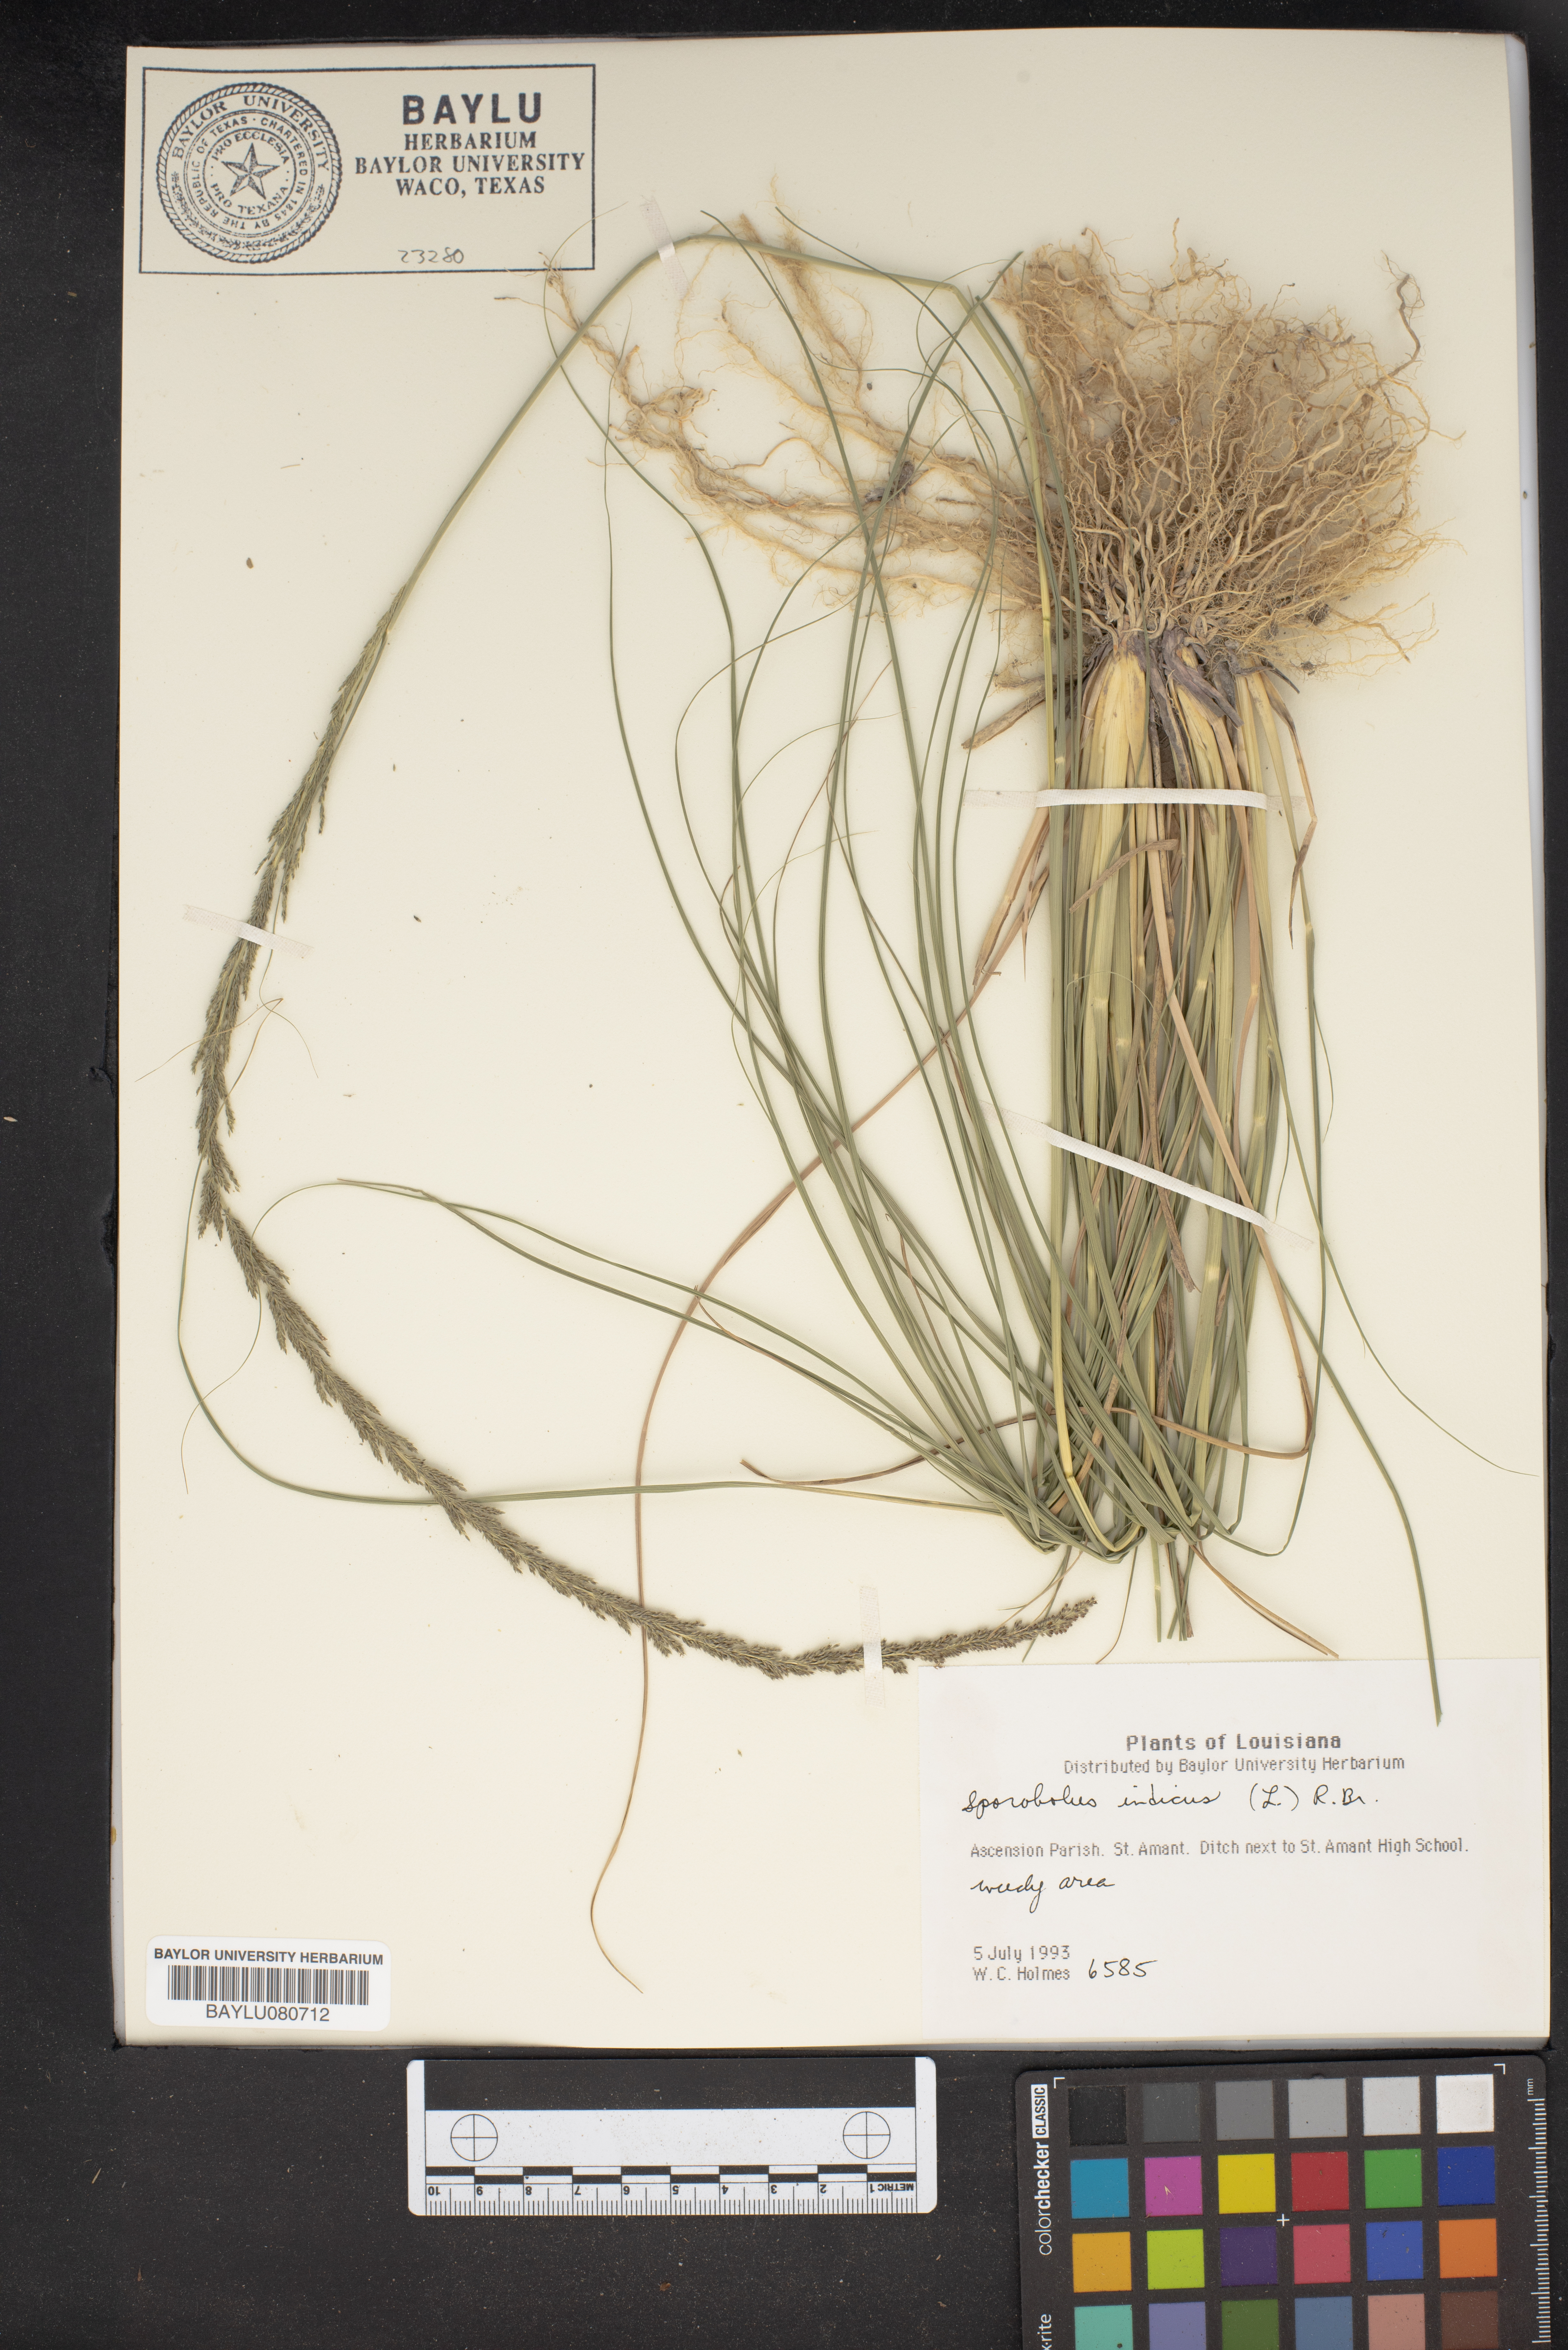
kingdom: Plantae
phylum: Tracheophyta
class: Liliopsida
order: Poales
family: Poaceae
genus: Sporobolus
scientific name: Sporobolus indicus
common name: Smut grass
